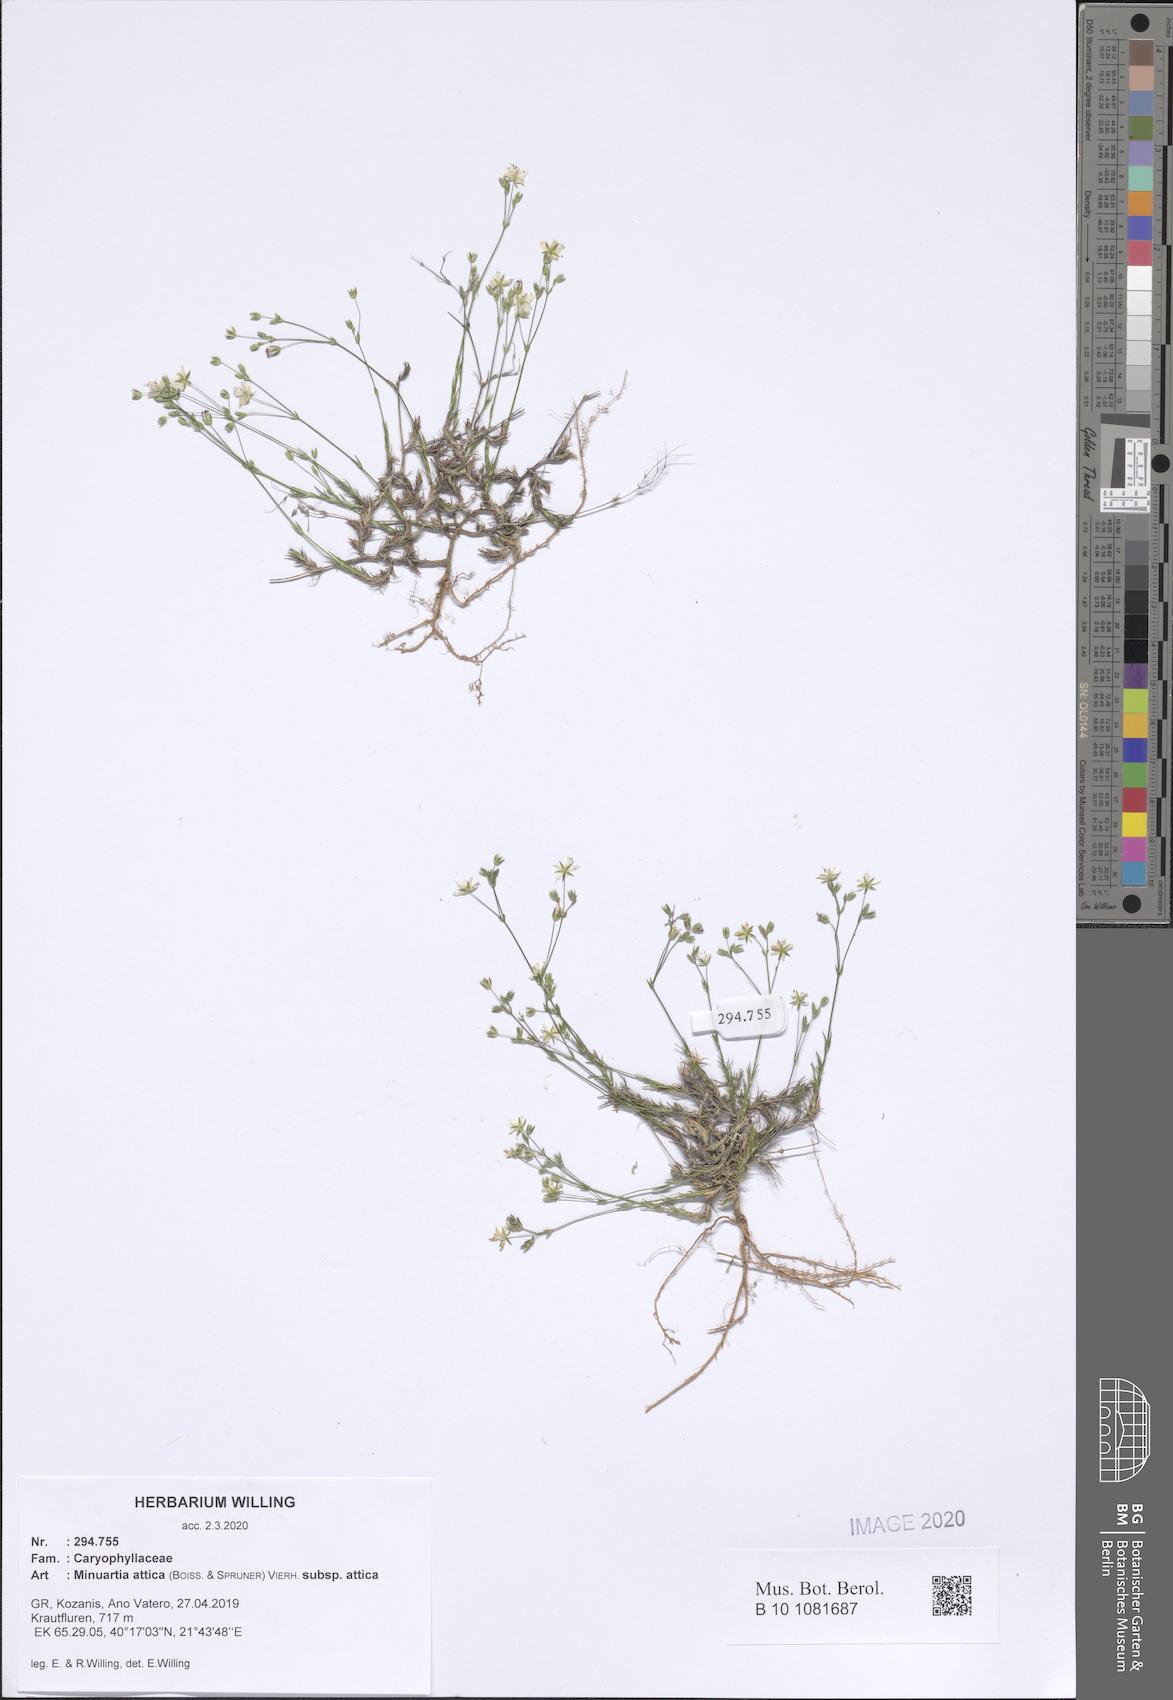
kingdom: Plantae
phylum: Tracheophyta
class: Magnoliopsida
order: Caryophyllales
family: Caryophyllaceae
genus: Sabulina
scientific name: Sabulina attica
